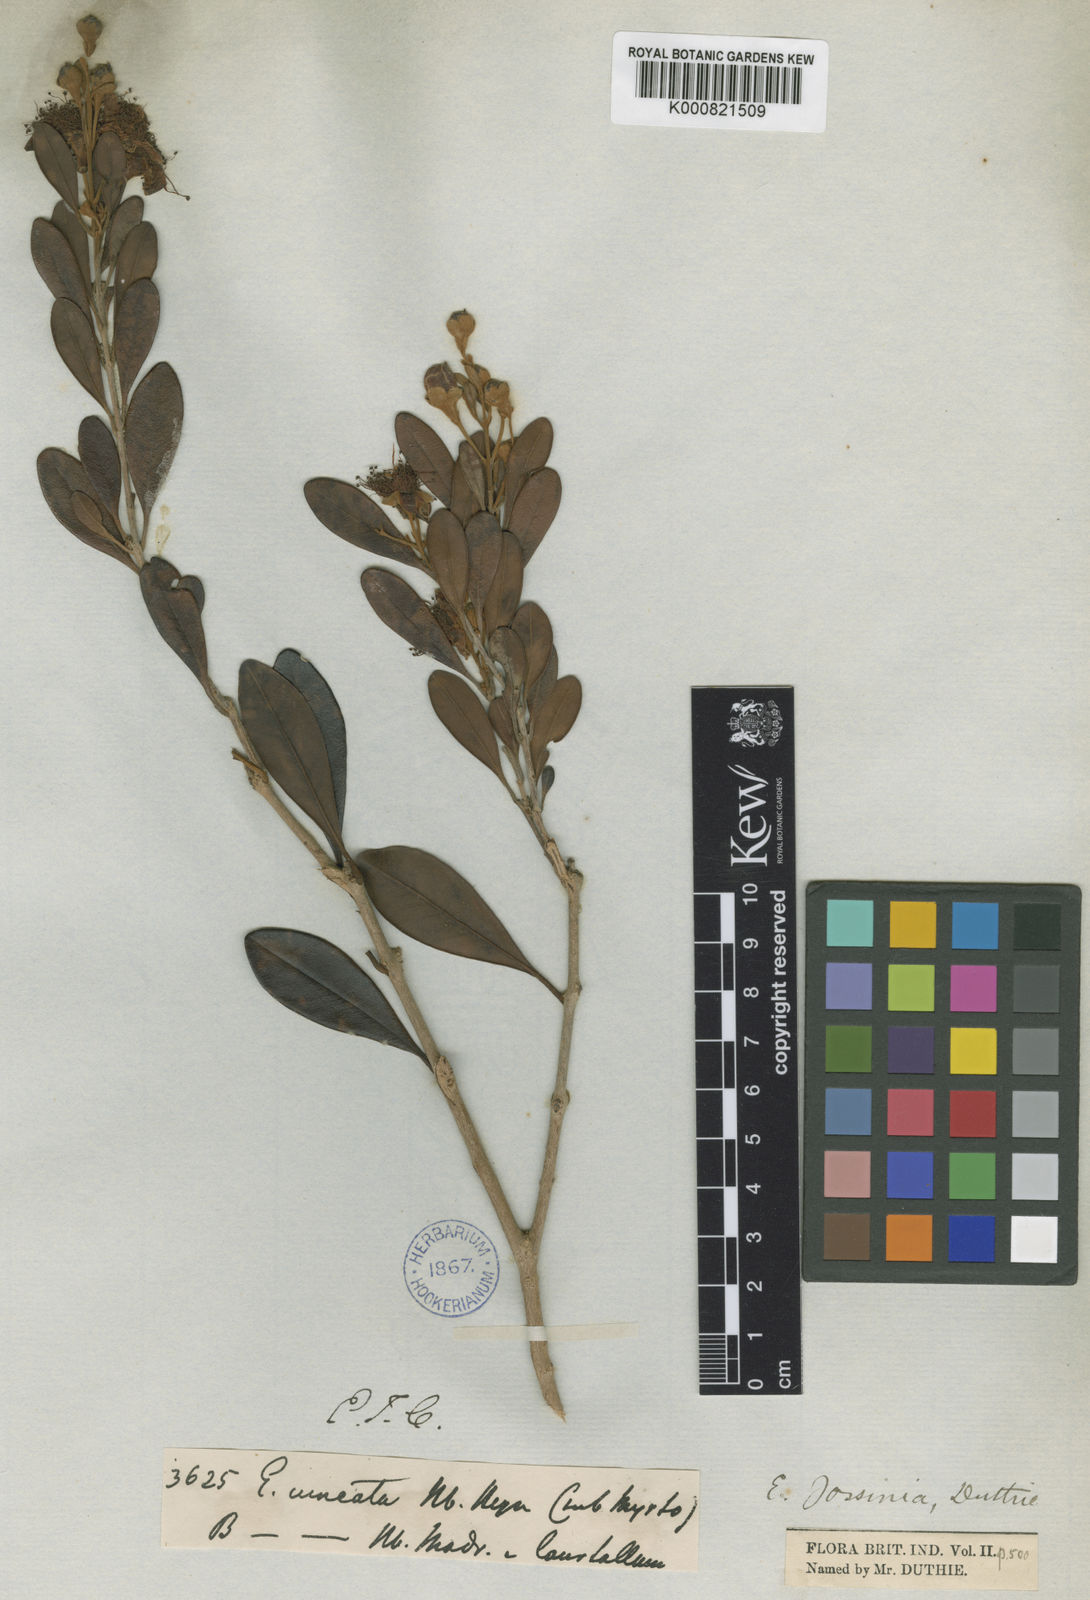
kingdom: Plantae
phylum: Tracheophyta
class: Magnoliopsida
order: Myrtales
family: Myrtaceae
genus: Eugenia
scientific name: Eugenia indica
